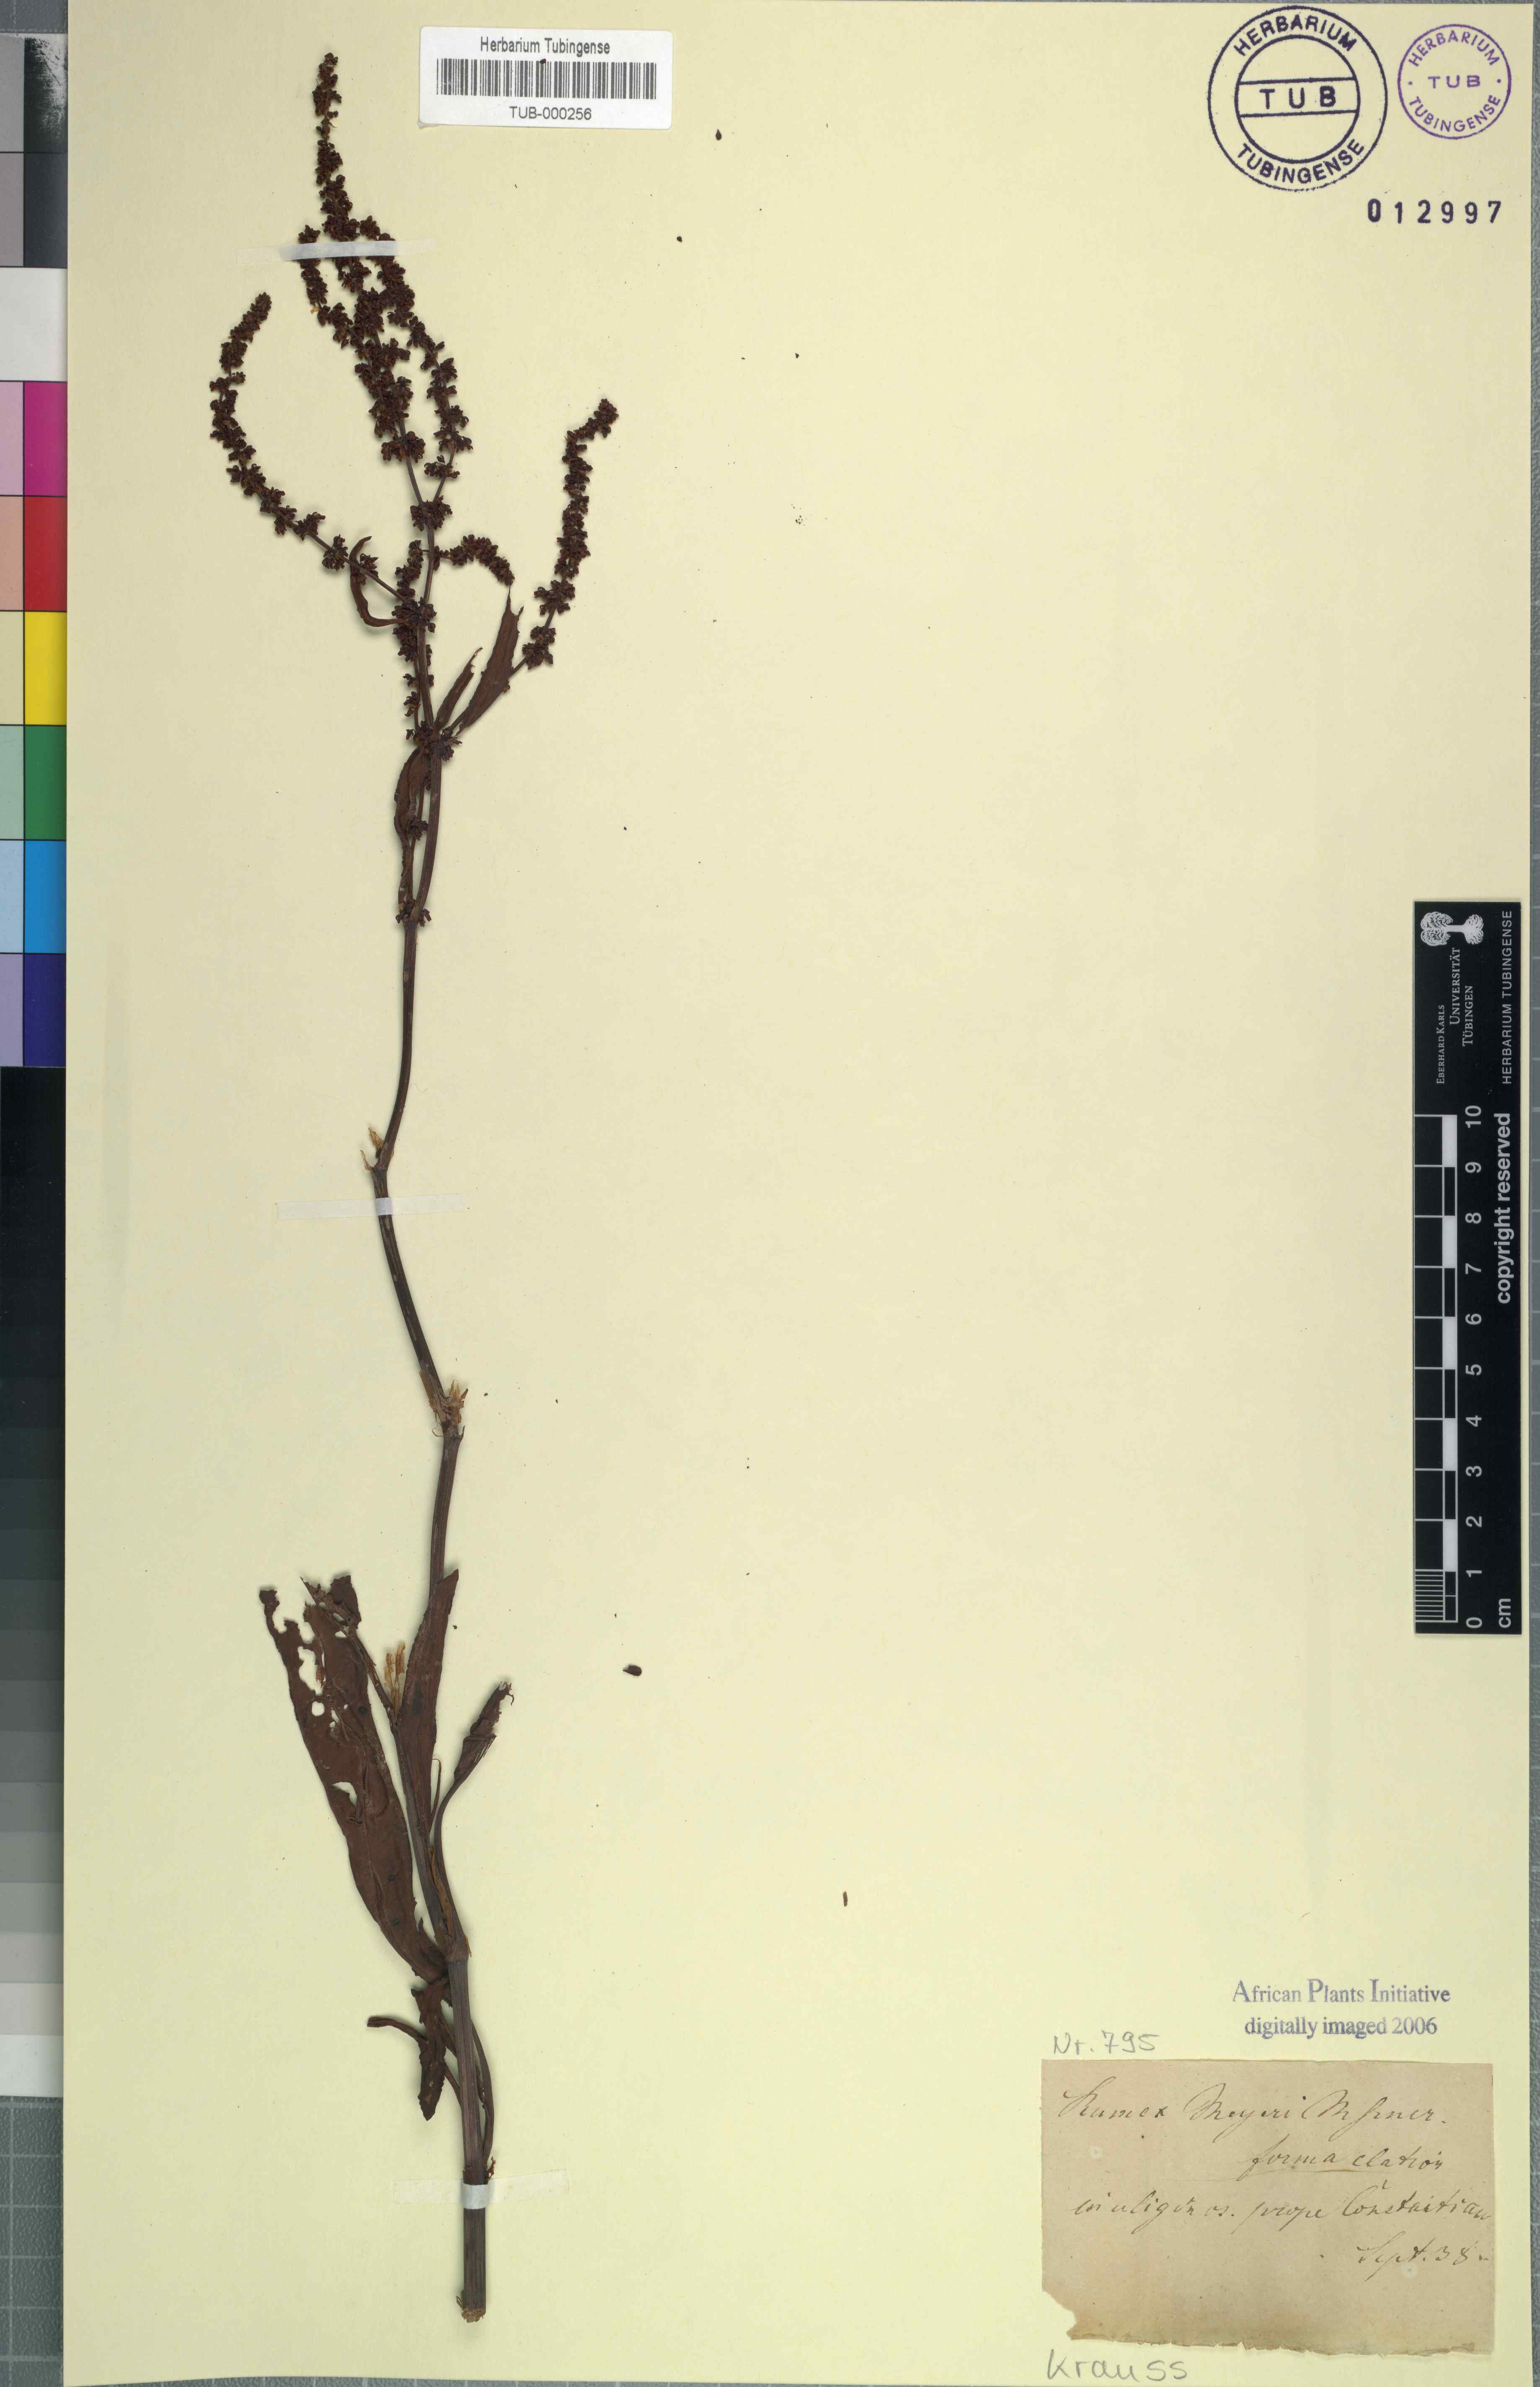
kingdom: Plantae
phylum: Tracheophyta
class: Magnoliopsida
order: Caryophyllales
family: Polygonaceae
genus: Rumex
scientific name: Rumex lanceolatus
